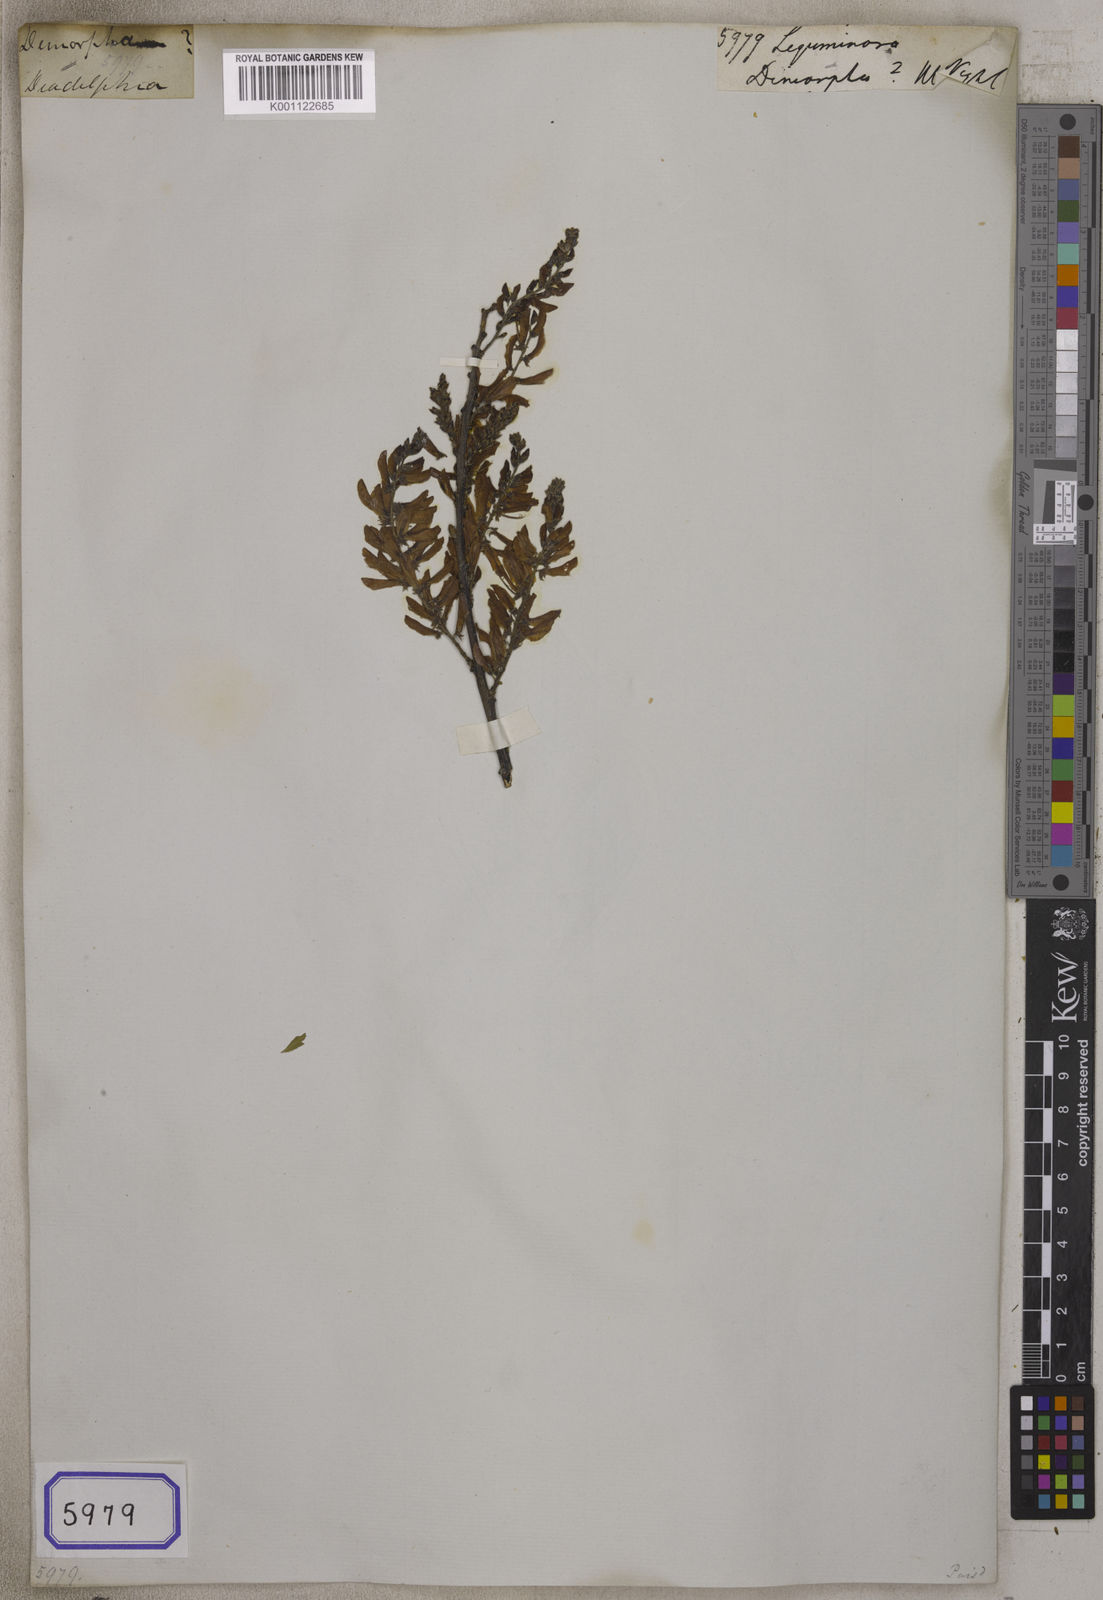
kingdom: Plantae
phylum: Tracheophyta
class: Magnoliopsida
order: Fabales
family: Fabaceae
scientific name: Fabaceae
